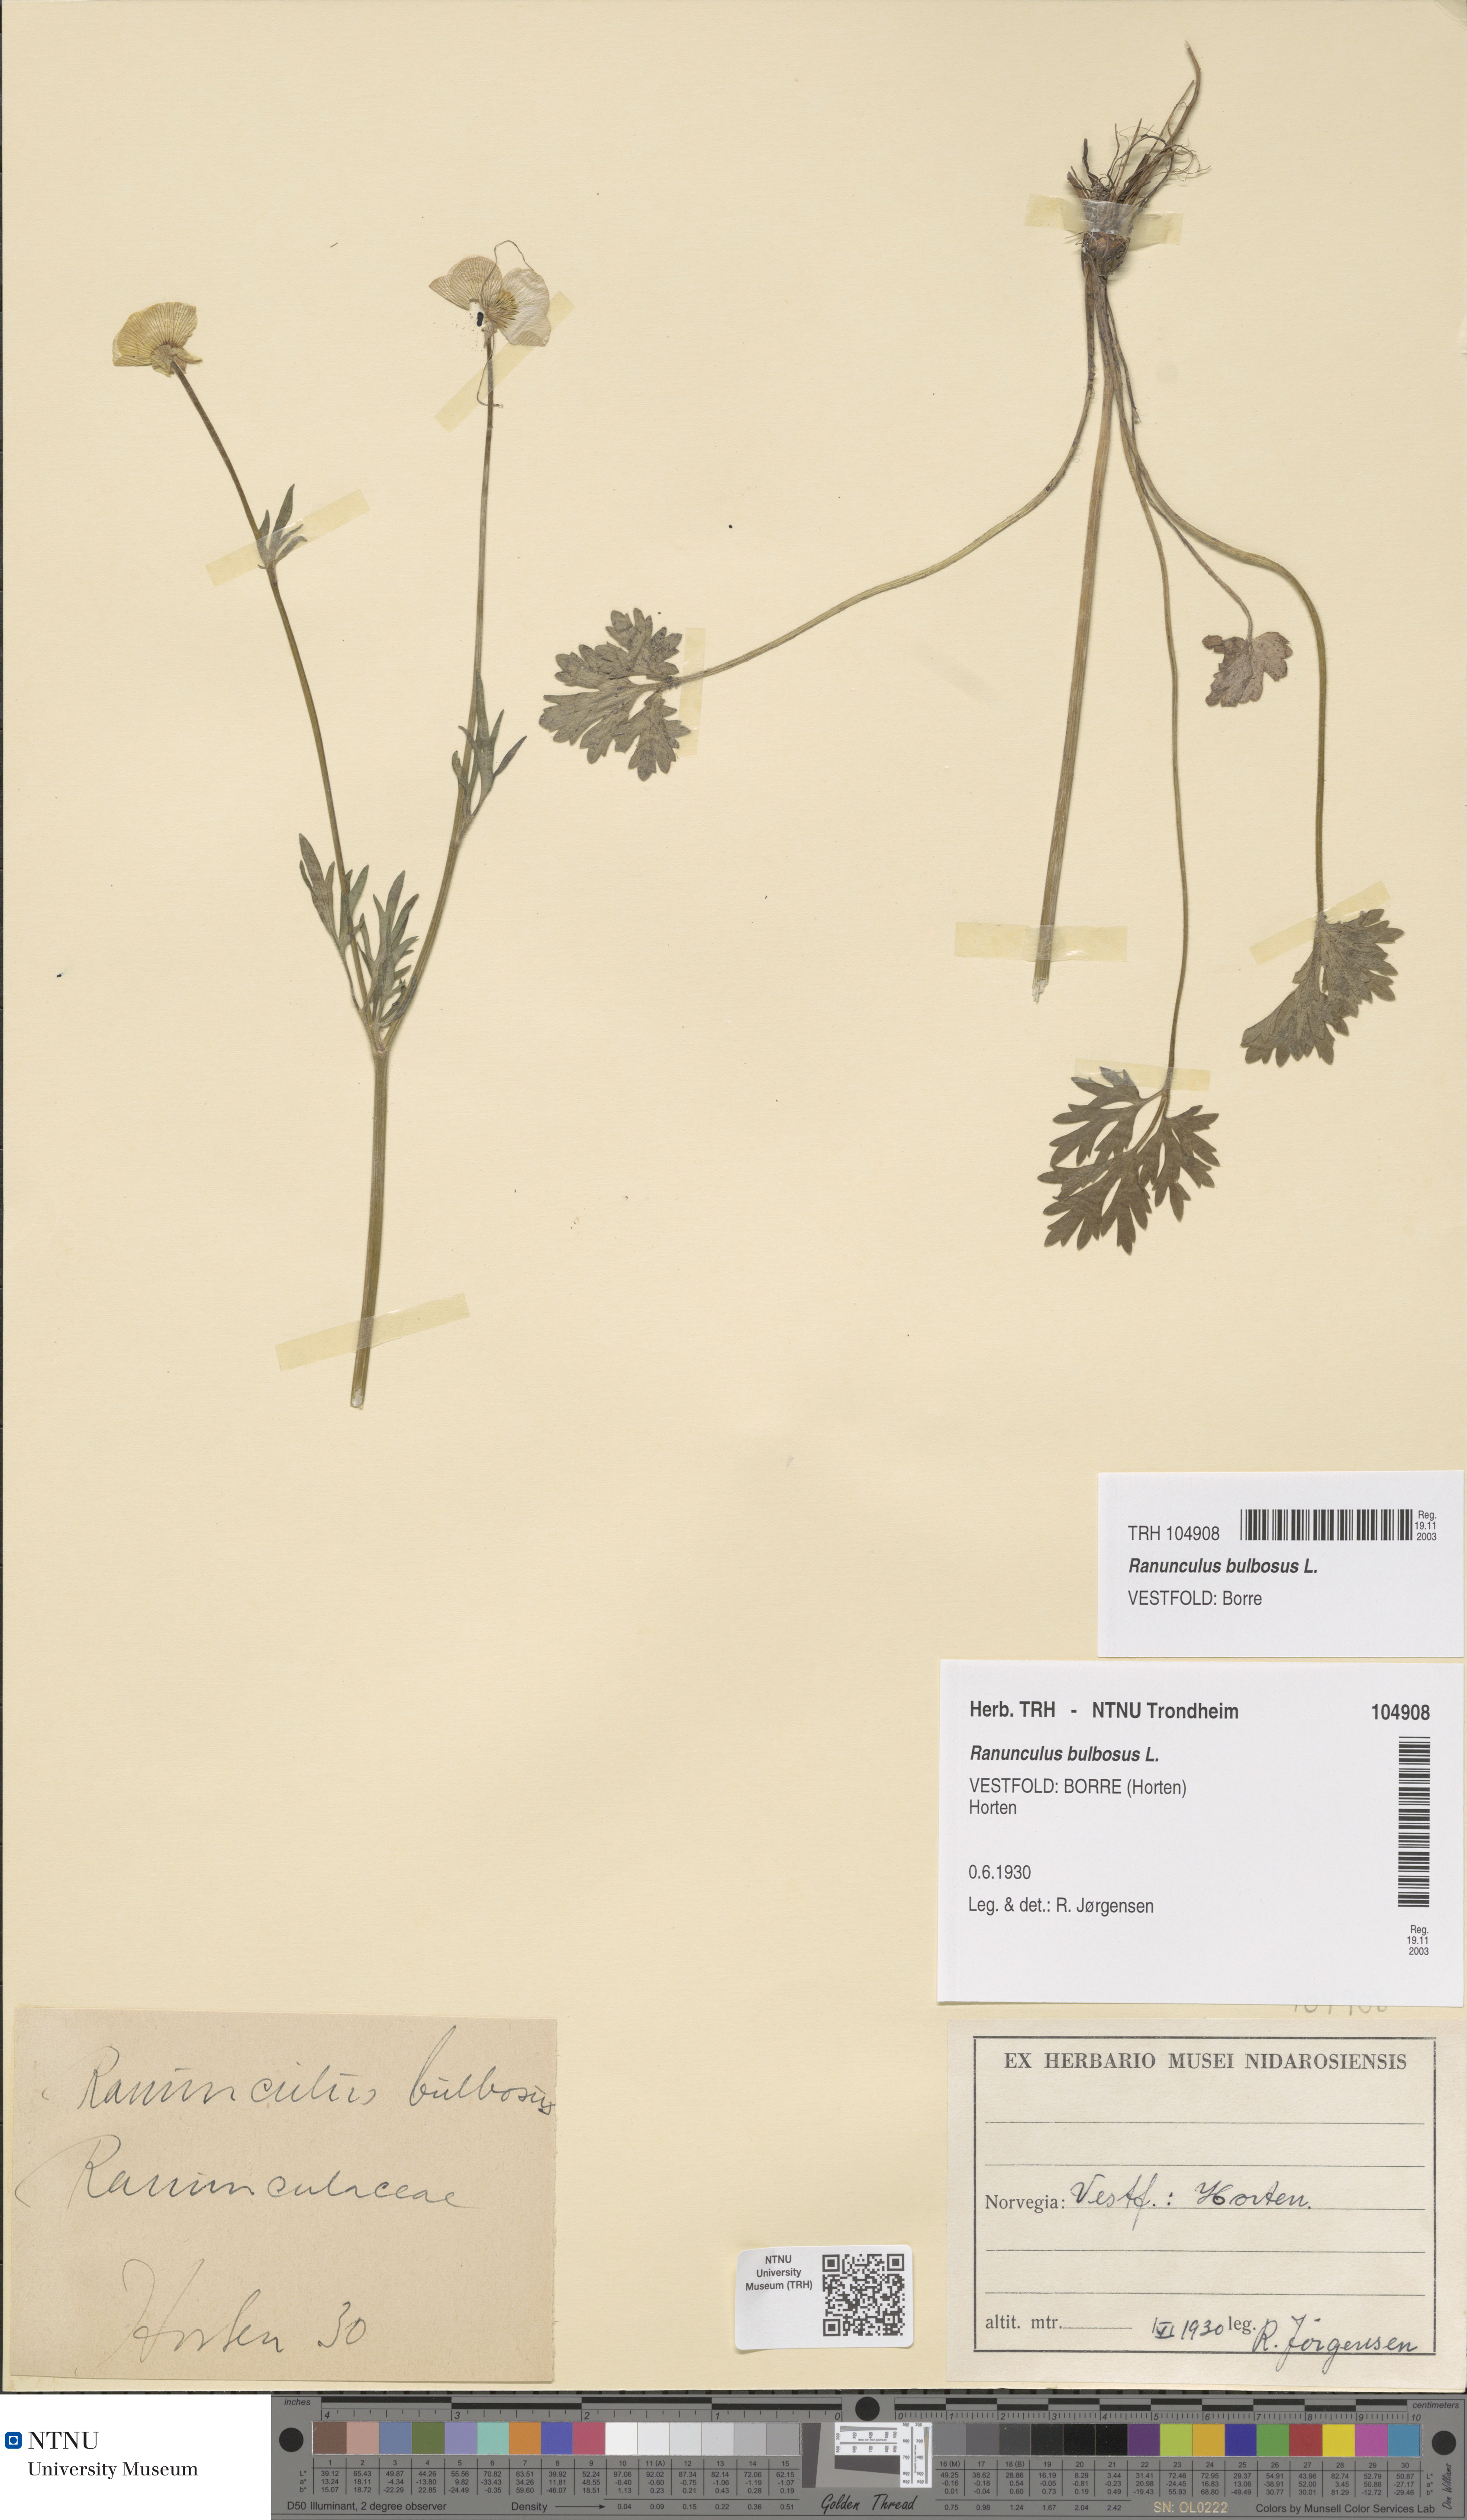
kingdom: Plantae
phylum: Tracheophyta
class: Magnoliopsida
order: Ranunculales
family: Ranunculaceae
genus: Ranunculus
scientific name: Ranunculus bulbosus
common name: Bulbous buttercup
